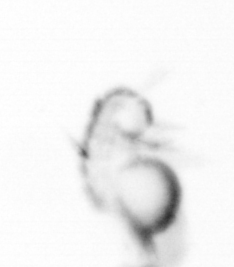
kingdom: Animalia
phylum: Annelida
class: Polychaeta
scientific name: Polychaeta
